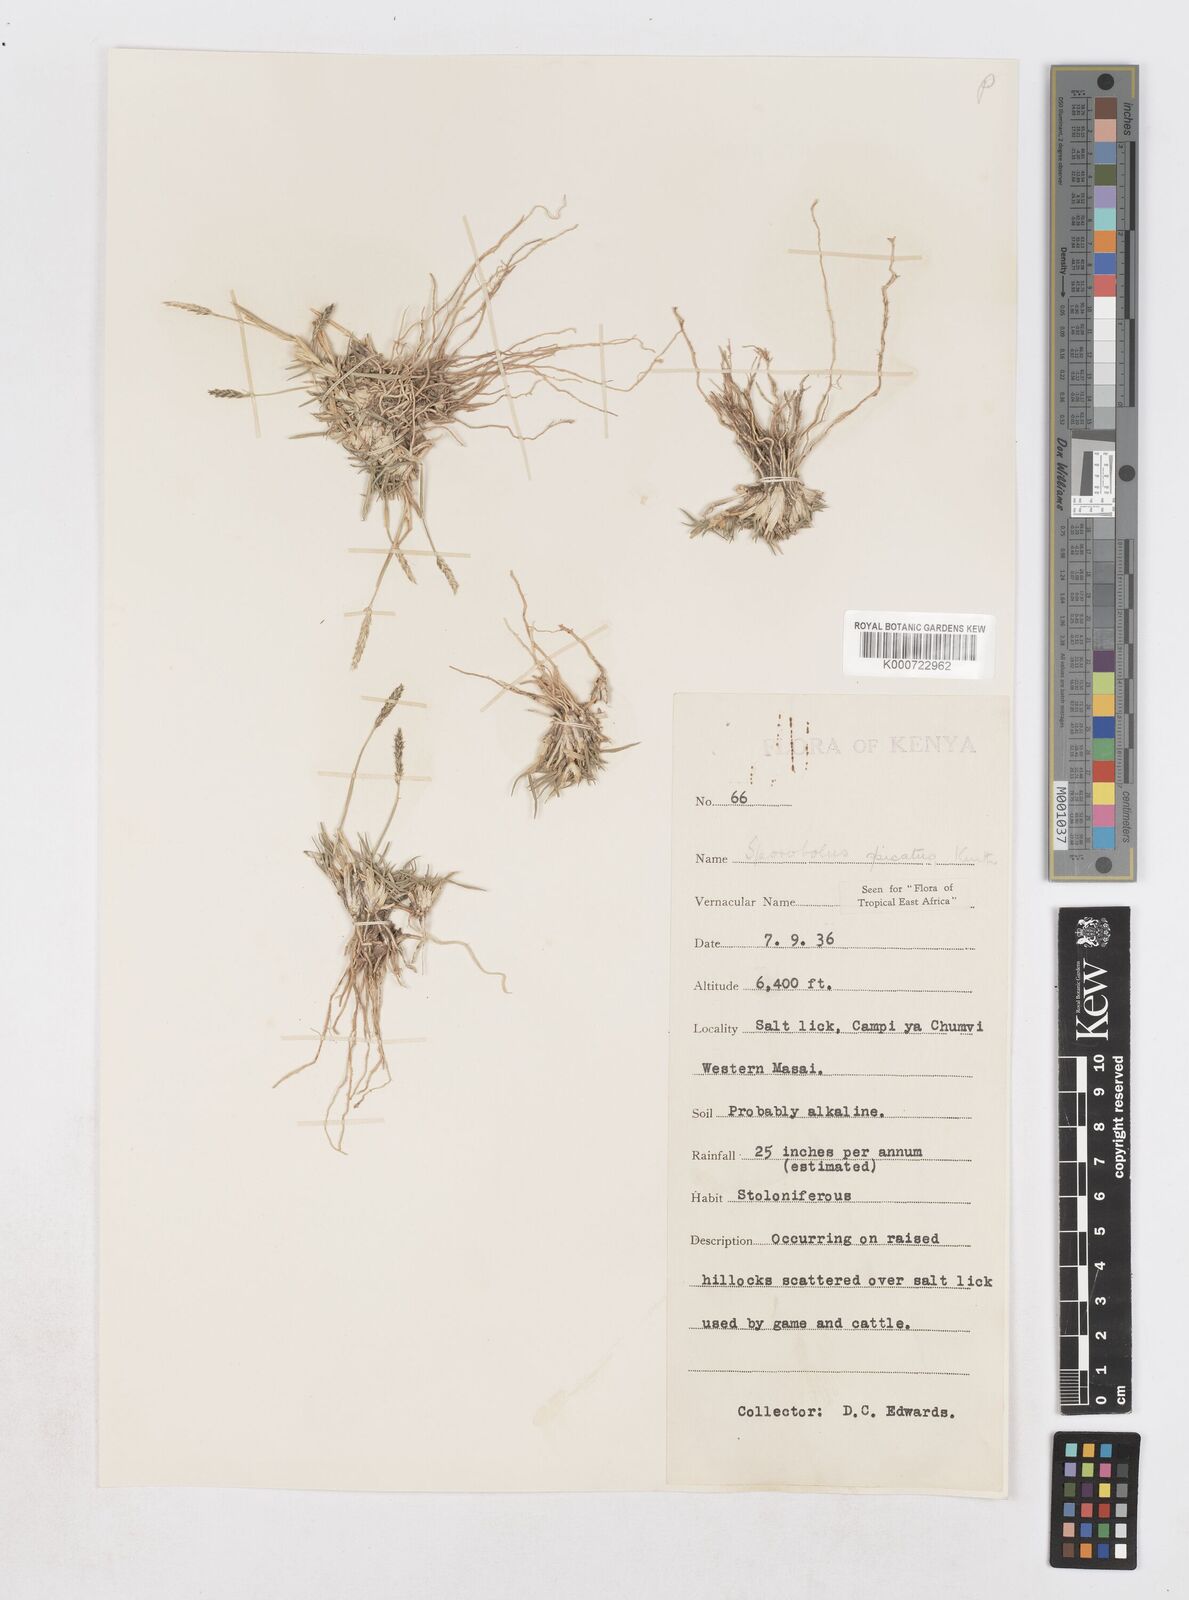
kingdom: Plantae
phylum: Tracheophyta
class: Liliopsida
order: Poales
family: Poaceae
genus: Sporobolus
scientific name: Sporobolus spicatus
